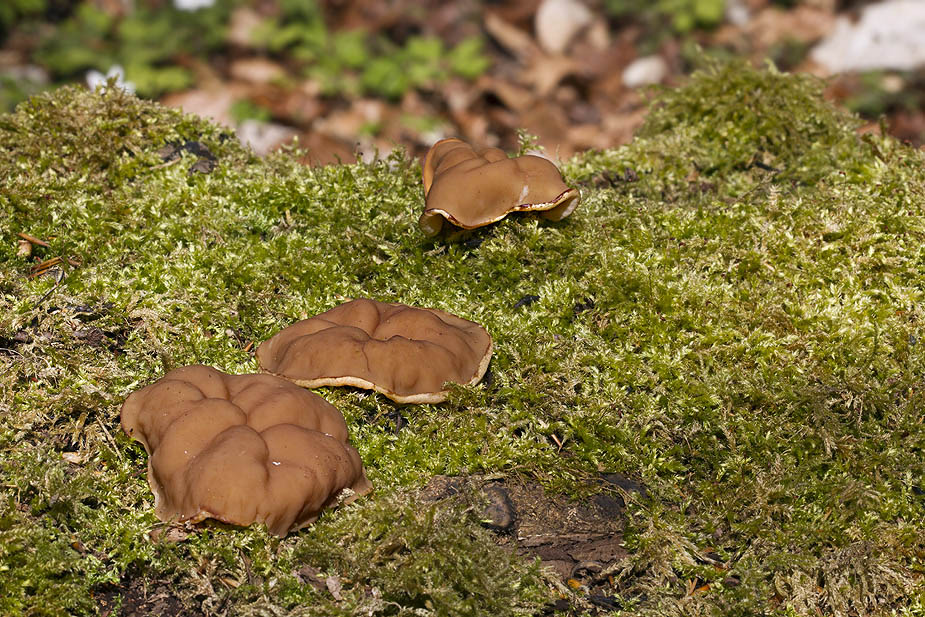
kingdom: Fungi
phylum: Ascomycota
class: Pezizomycetes
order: Pezizales
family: Discinaceae
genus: Gyromitra
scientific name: Gyromitra parma
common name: flad stenmorkel
